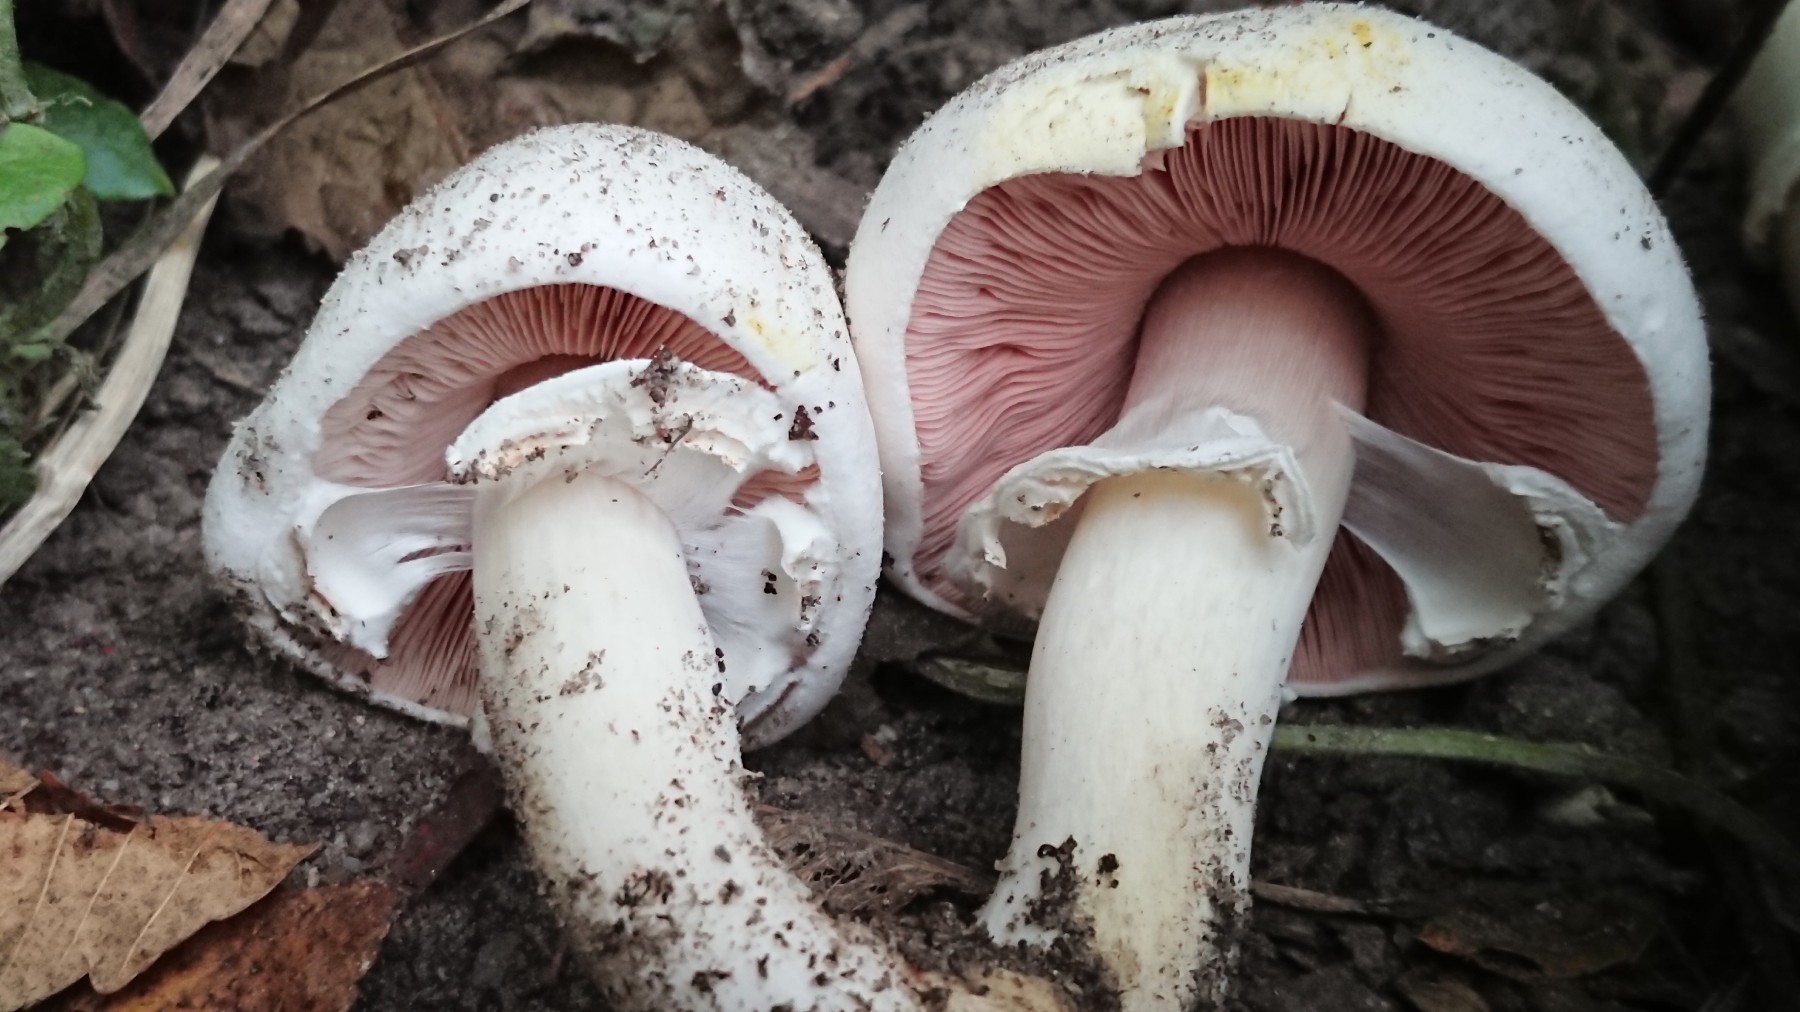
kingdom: Fungi
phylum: Basidiomycota
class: Agaricomycetes
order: Agaricales
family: Agaricaceae
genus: Agaricus
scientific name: Agaricus xanthodermus
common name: karbol-champignon
